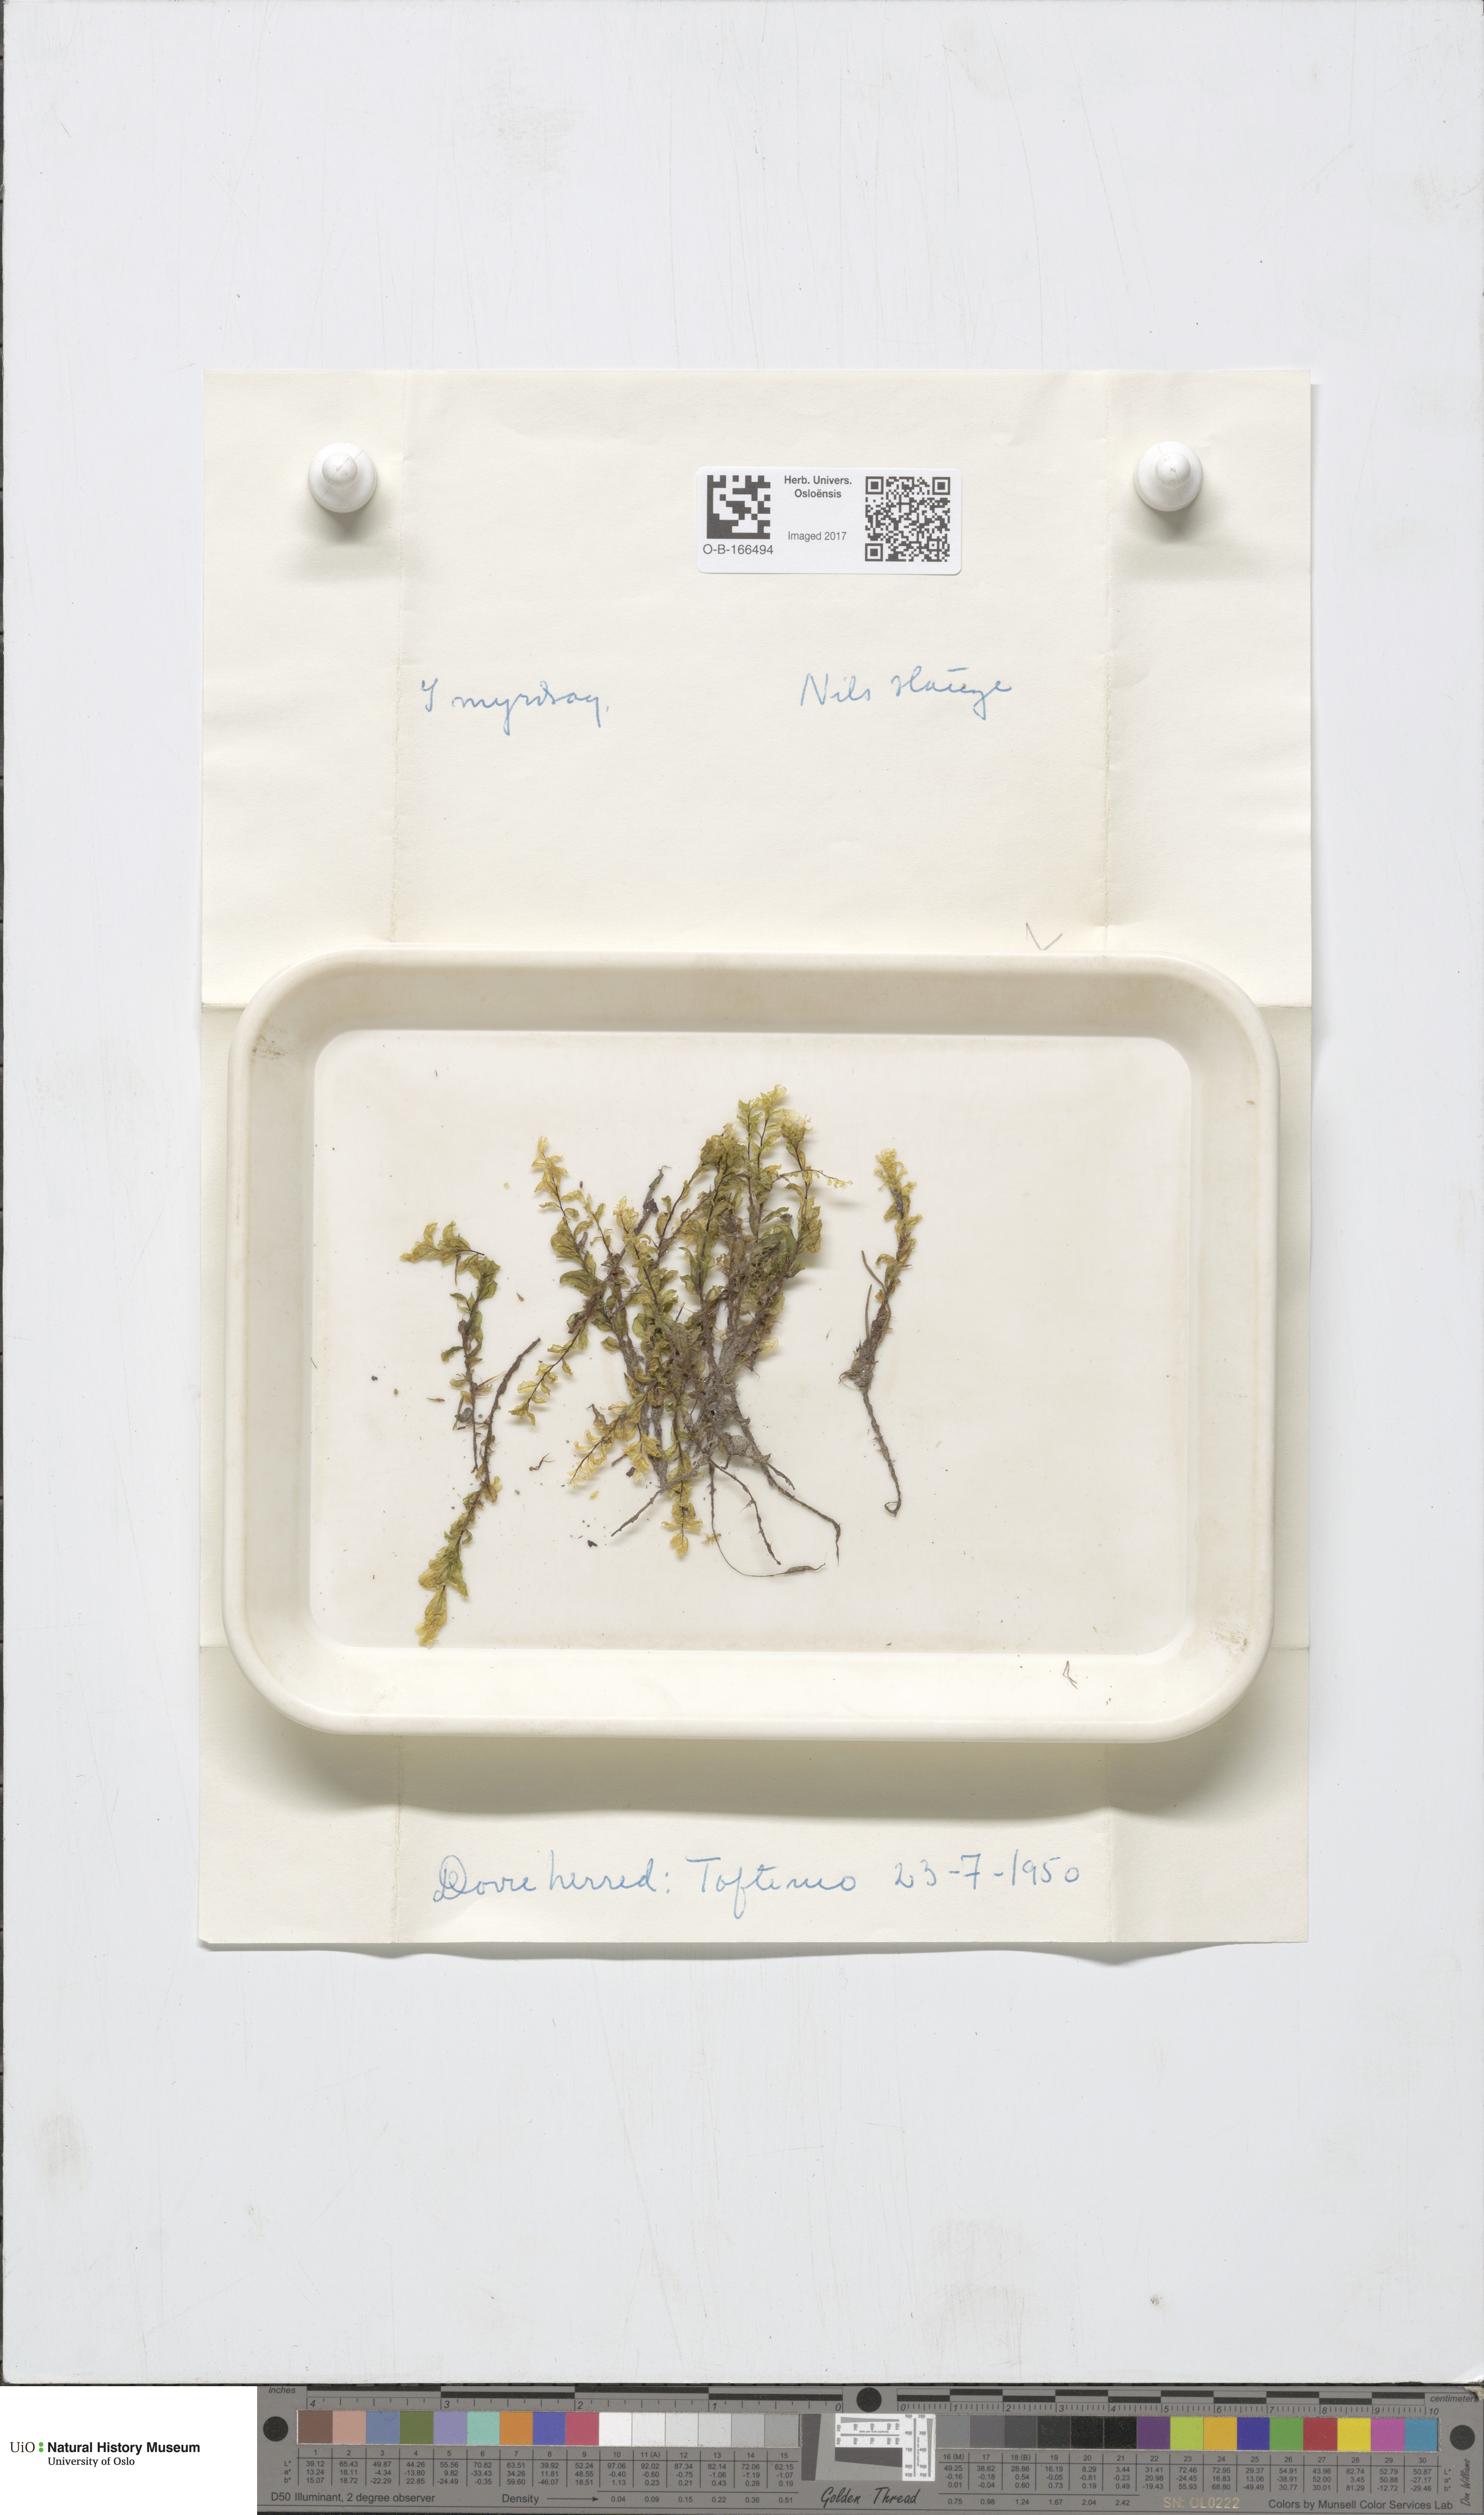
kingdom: Plantae
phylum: Bryophyta
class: Bryopsida
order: Bryales
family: Mniaceae
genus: Pseudobryum
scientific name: Pseudobryum cinclidioides
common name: River thyme moss
